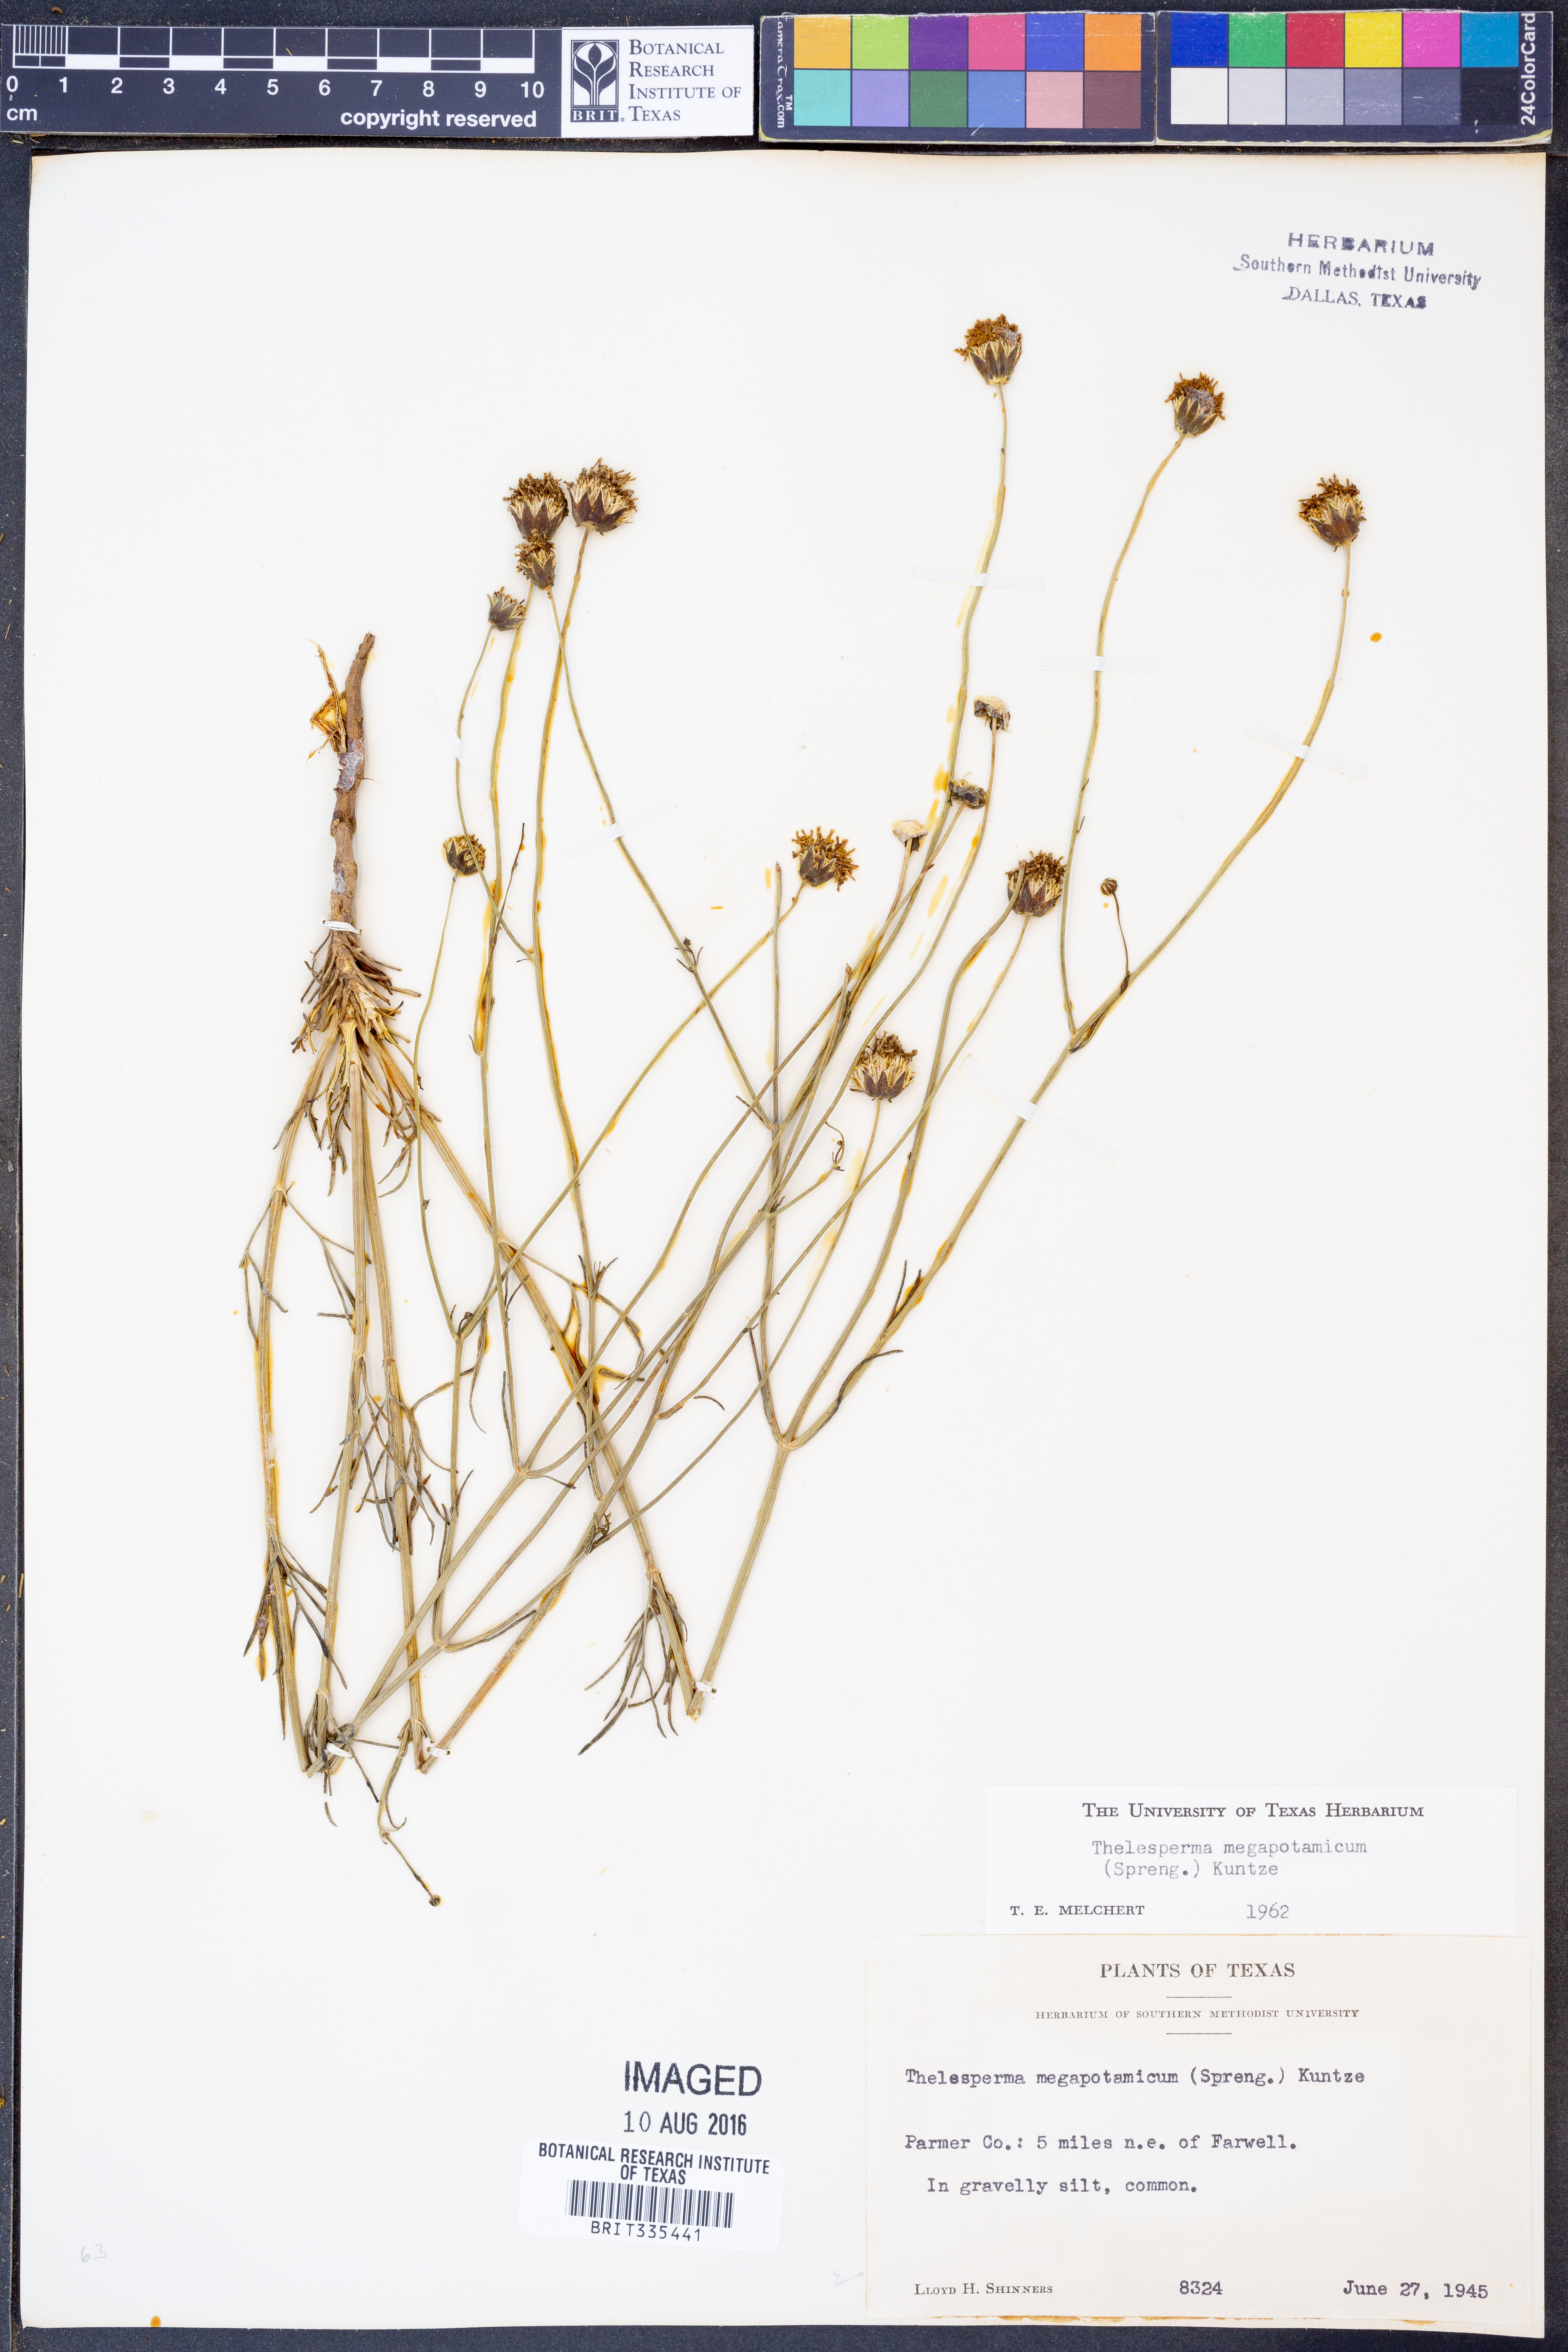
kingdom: Plantae
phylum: Tracheophyta
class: Magnoliopsida
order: Asterales
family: Asteraceae
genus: Thelesperma
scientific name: Thelesperma megapotamicum
